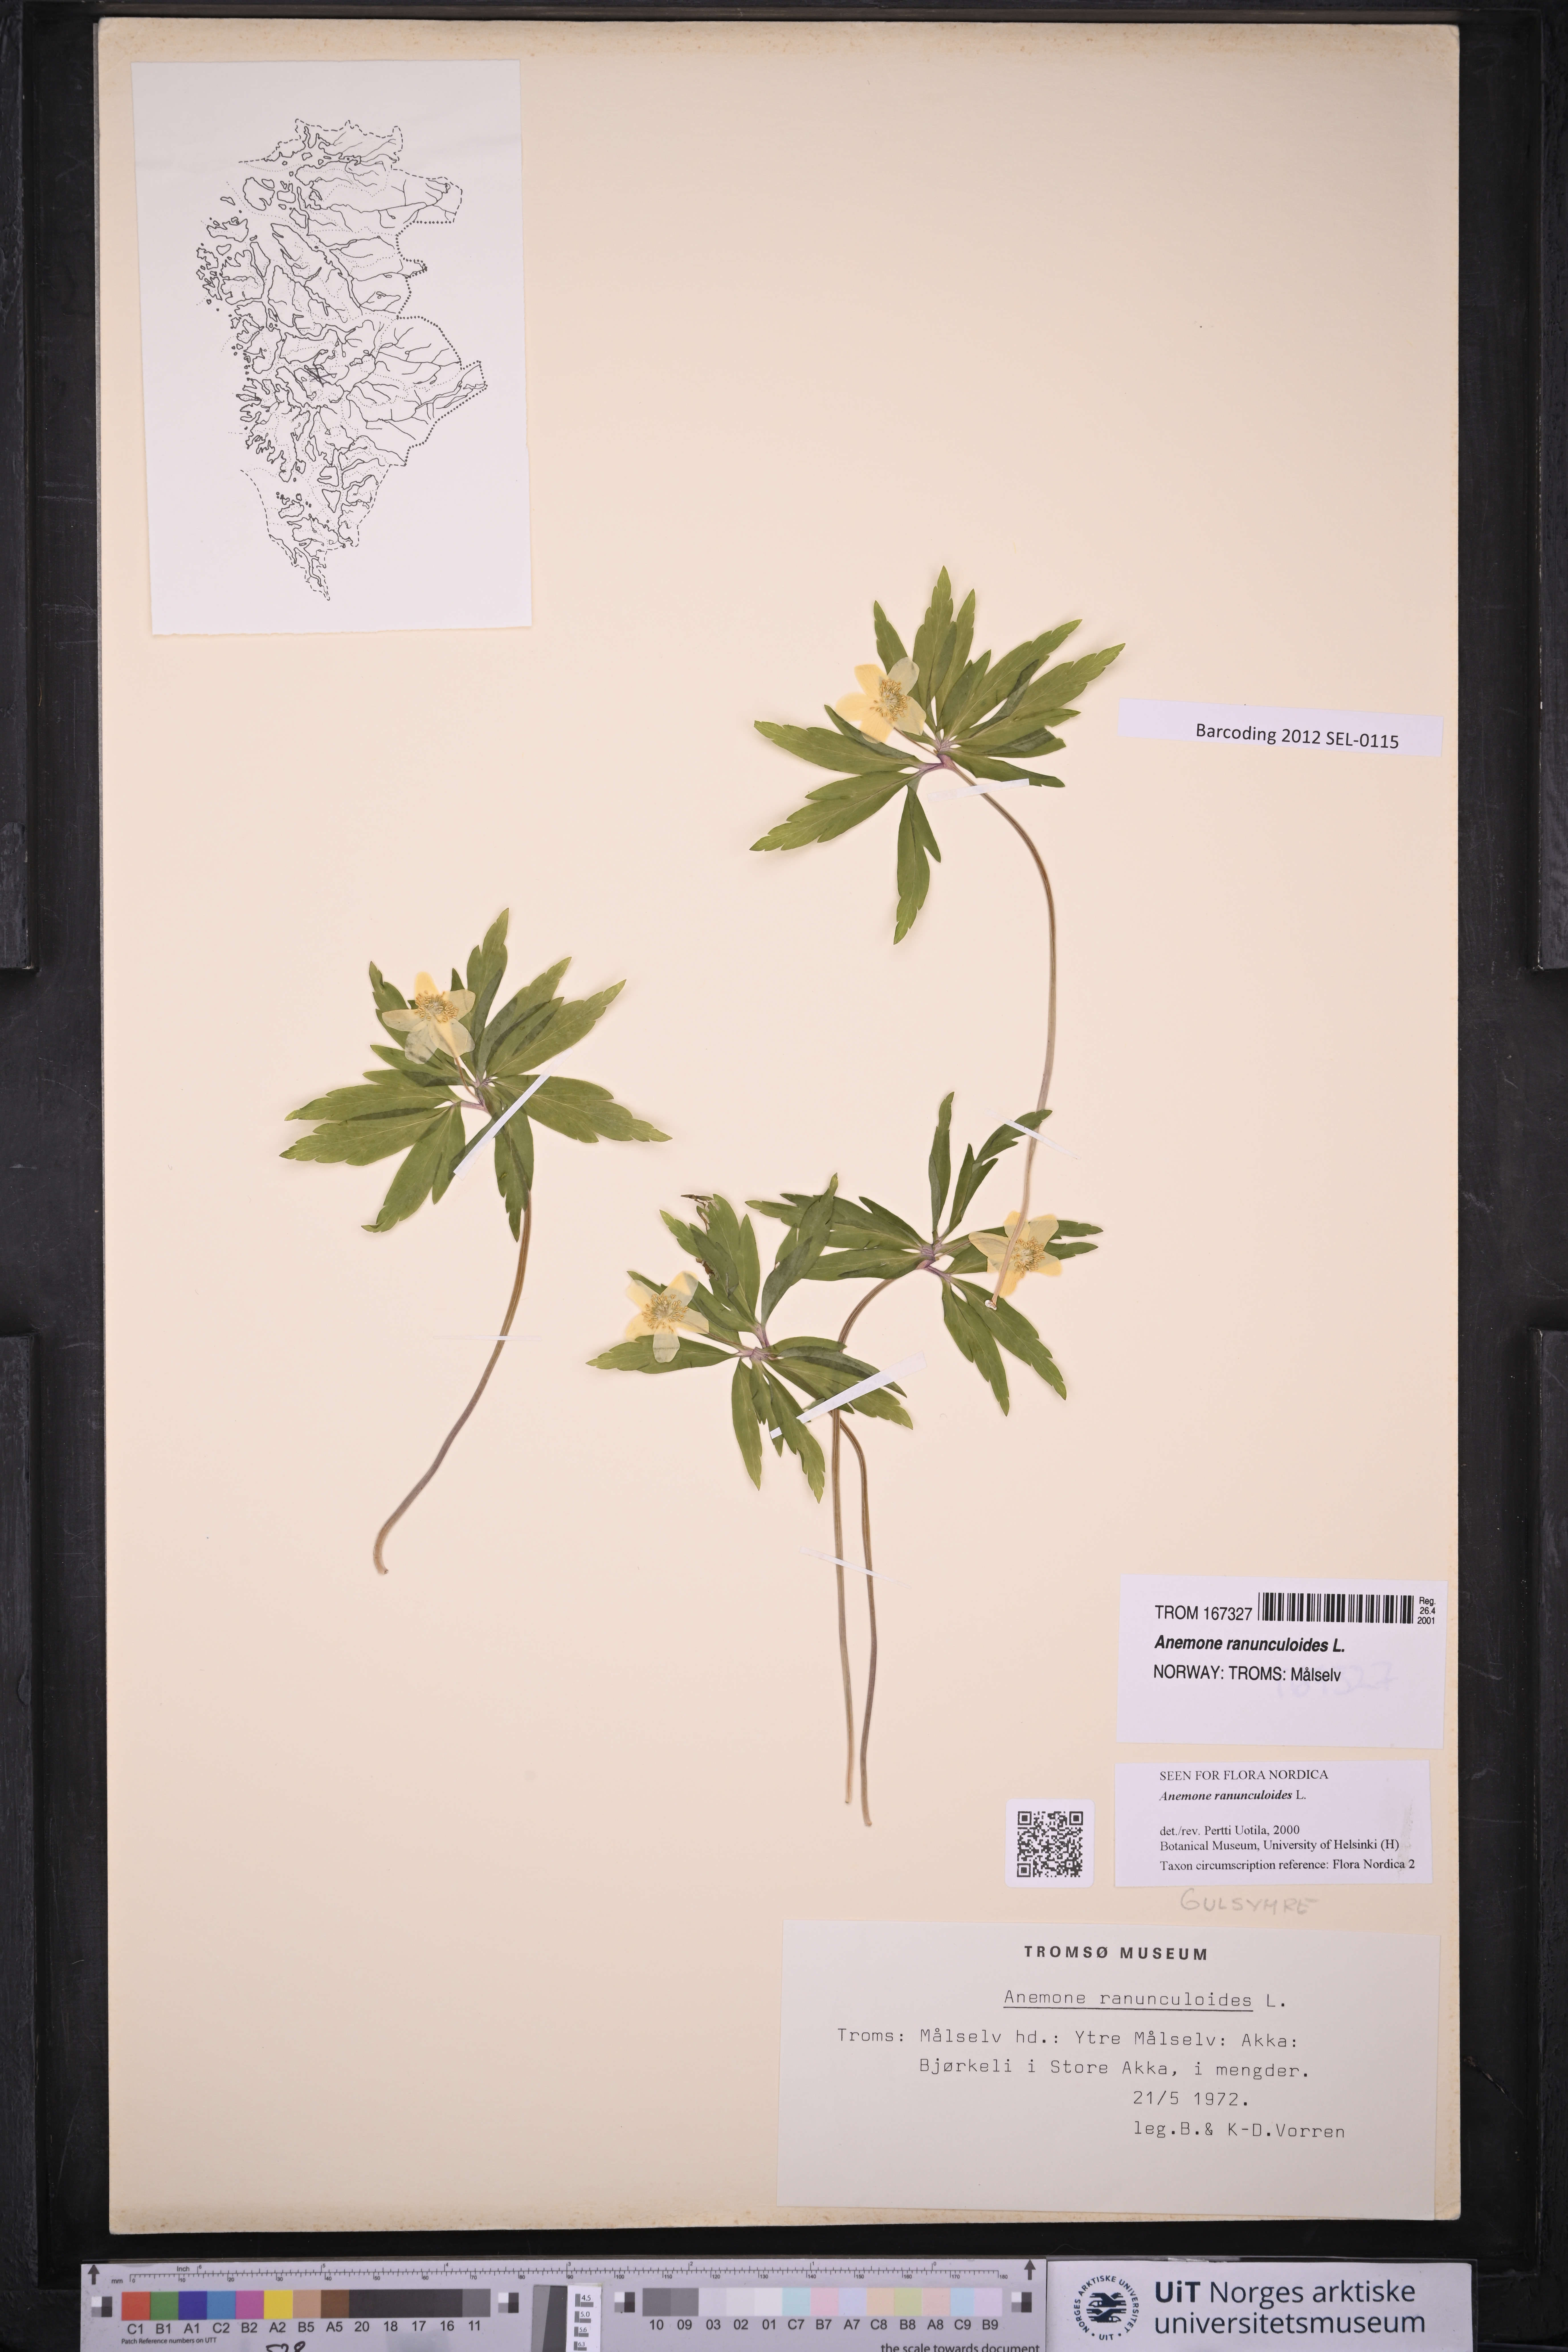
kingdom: Plantae
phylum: Tracheophyta
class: Magnoliopsida
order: Ranunculales
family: Ranunculaceae
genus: Anemone
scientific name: Anemone ranunculoides
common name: Yellow anemone
